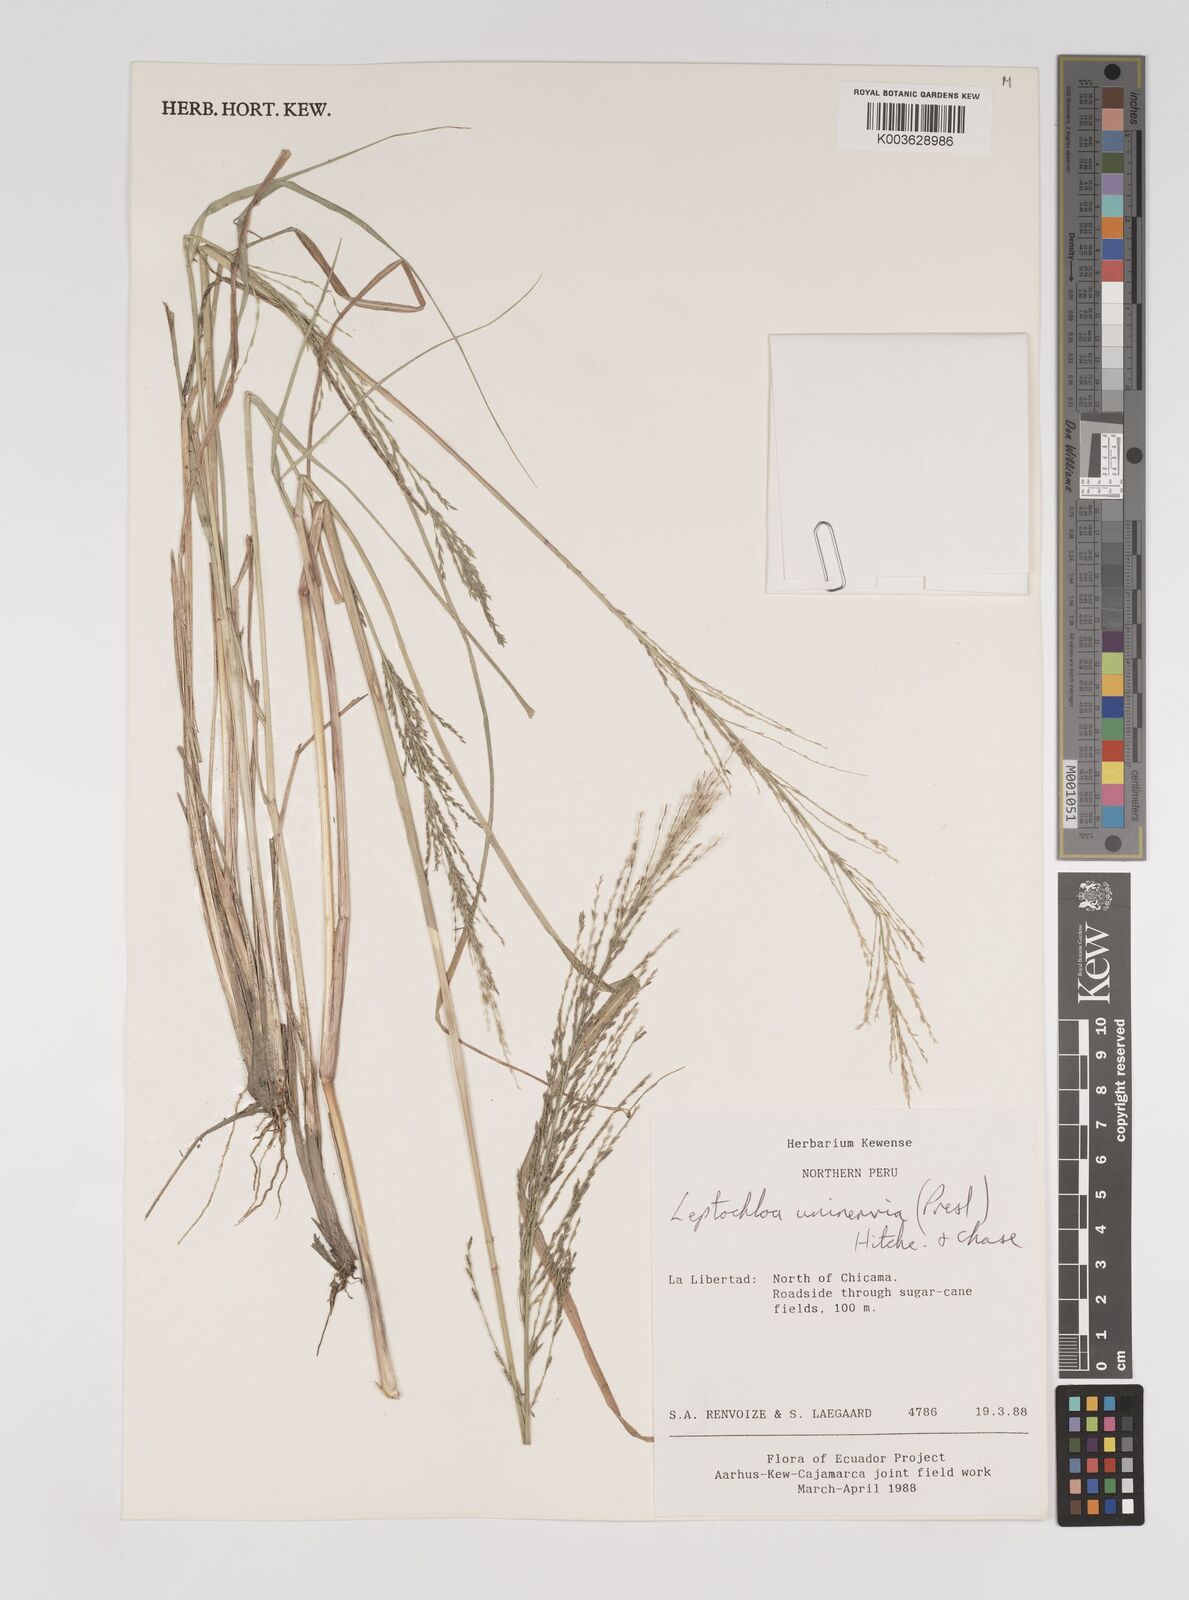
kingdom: Plantae
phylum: Tracheophyta
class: Liliopsida
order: Poales
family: Poaceae
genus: Diplachne
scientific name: Diplachne fusca
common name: Brown beetle grass
